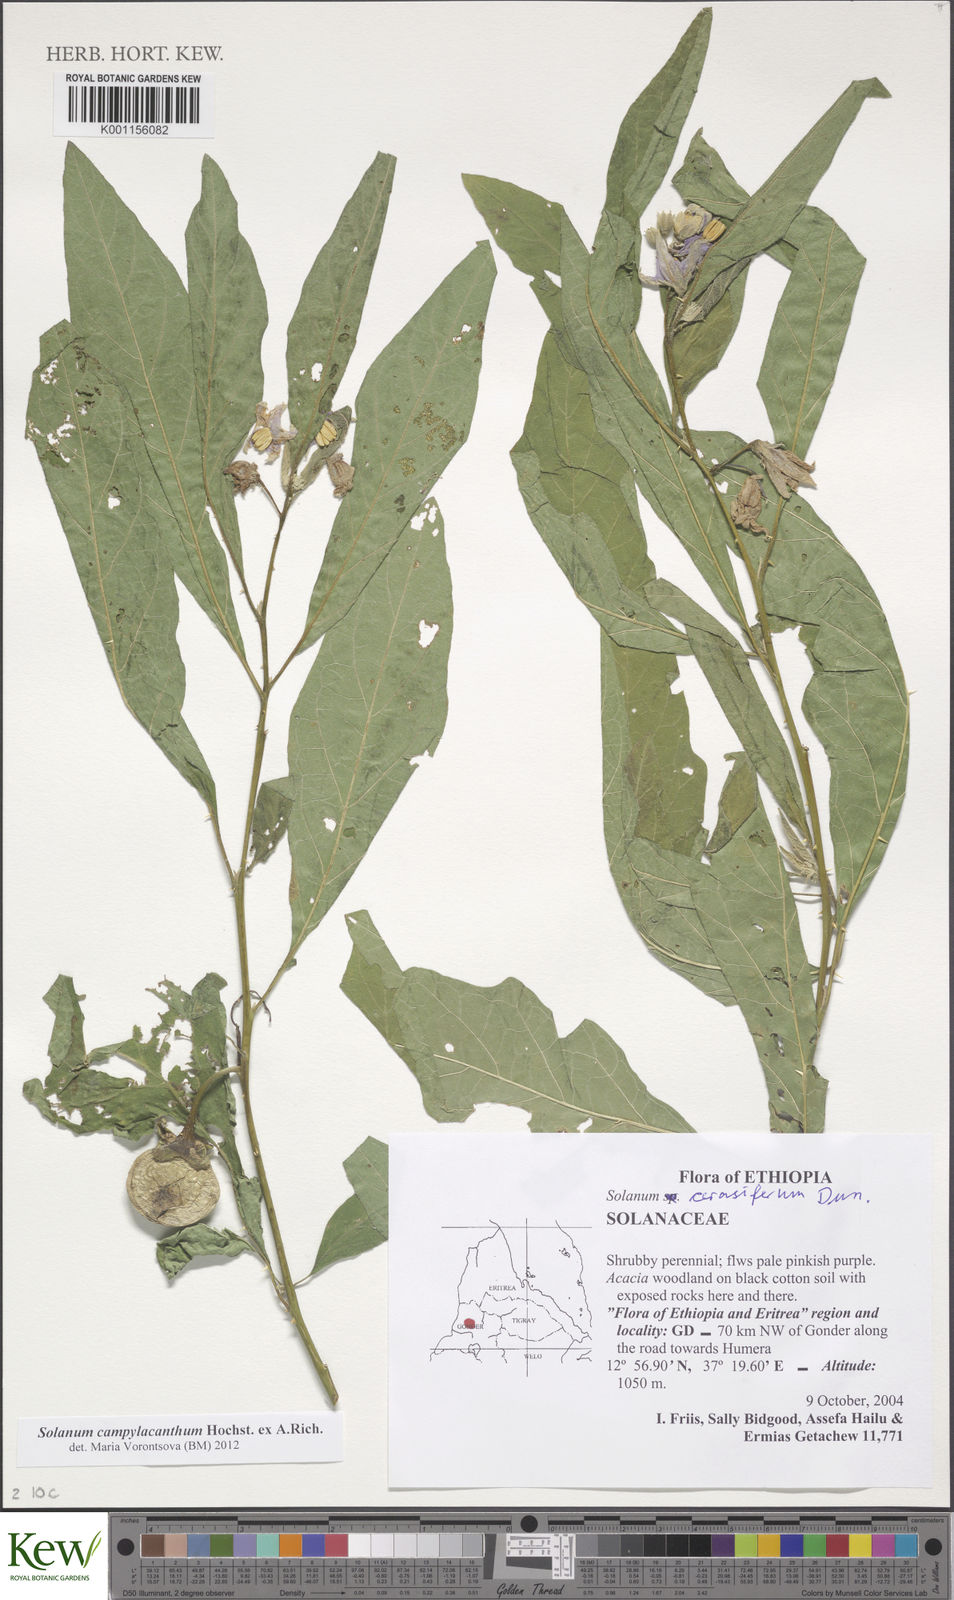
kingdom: Plantae
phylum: Tracheophyta
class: Magnoliopsida
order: Solanales
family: Solanaceae
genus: Solanum
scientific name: Solanum campylacanthum
